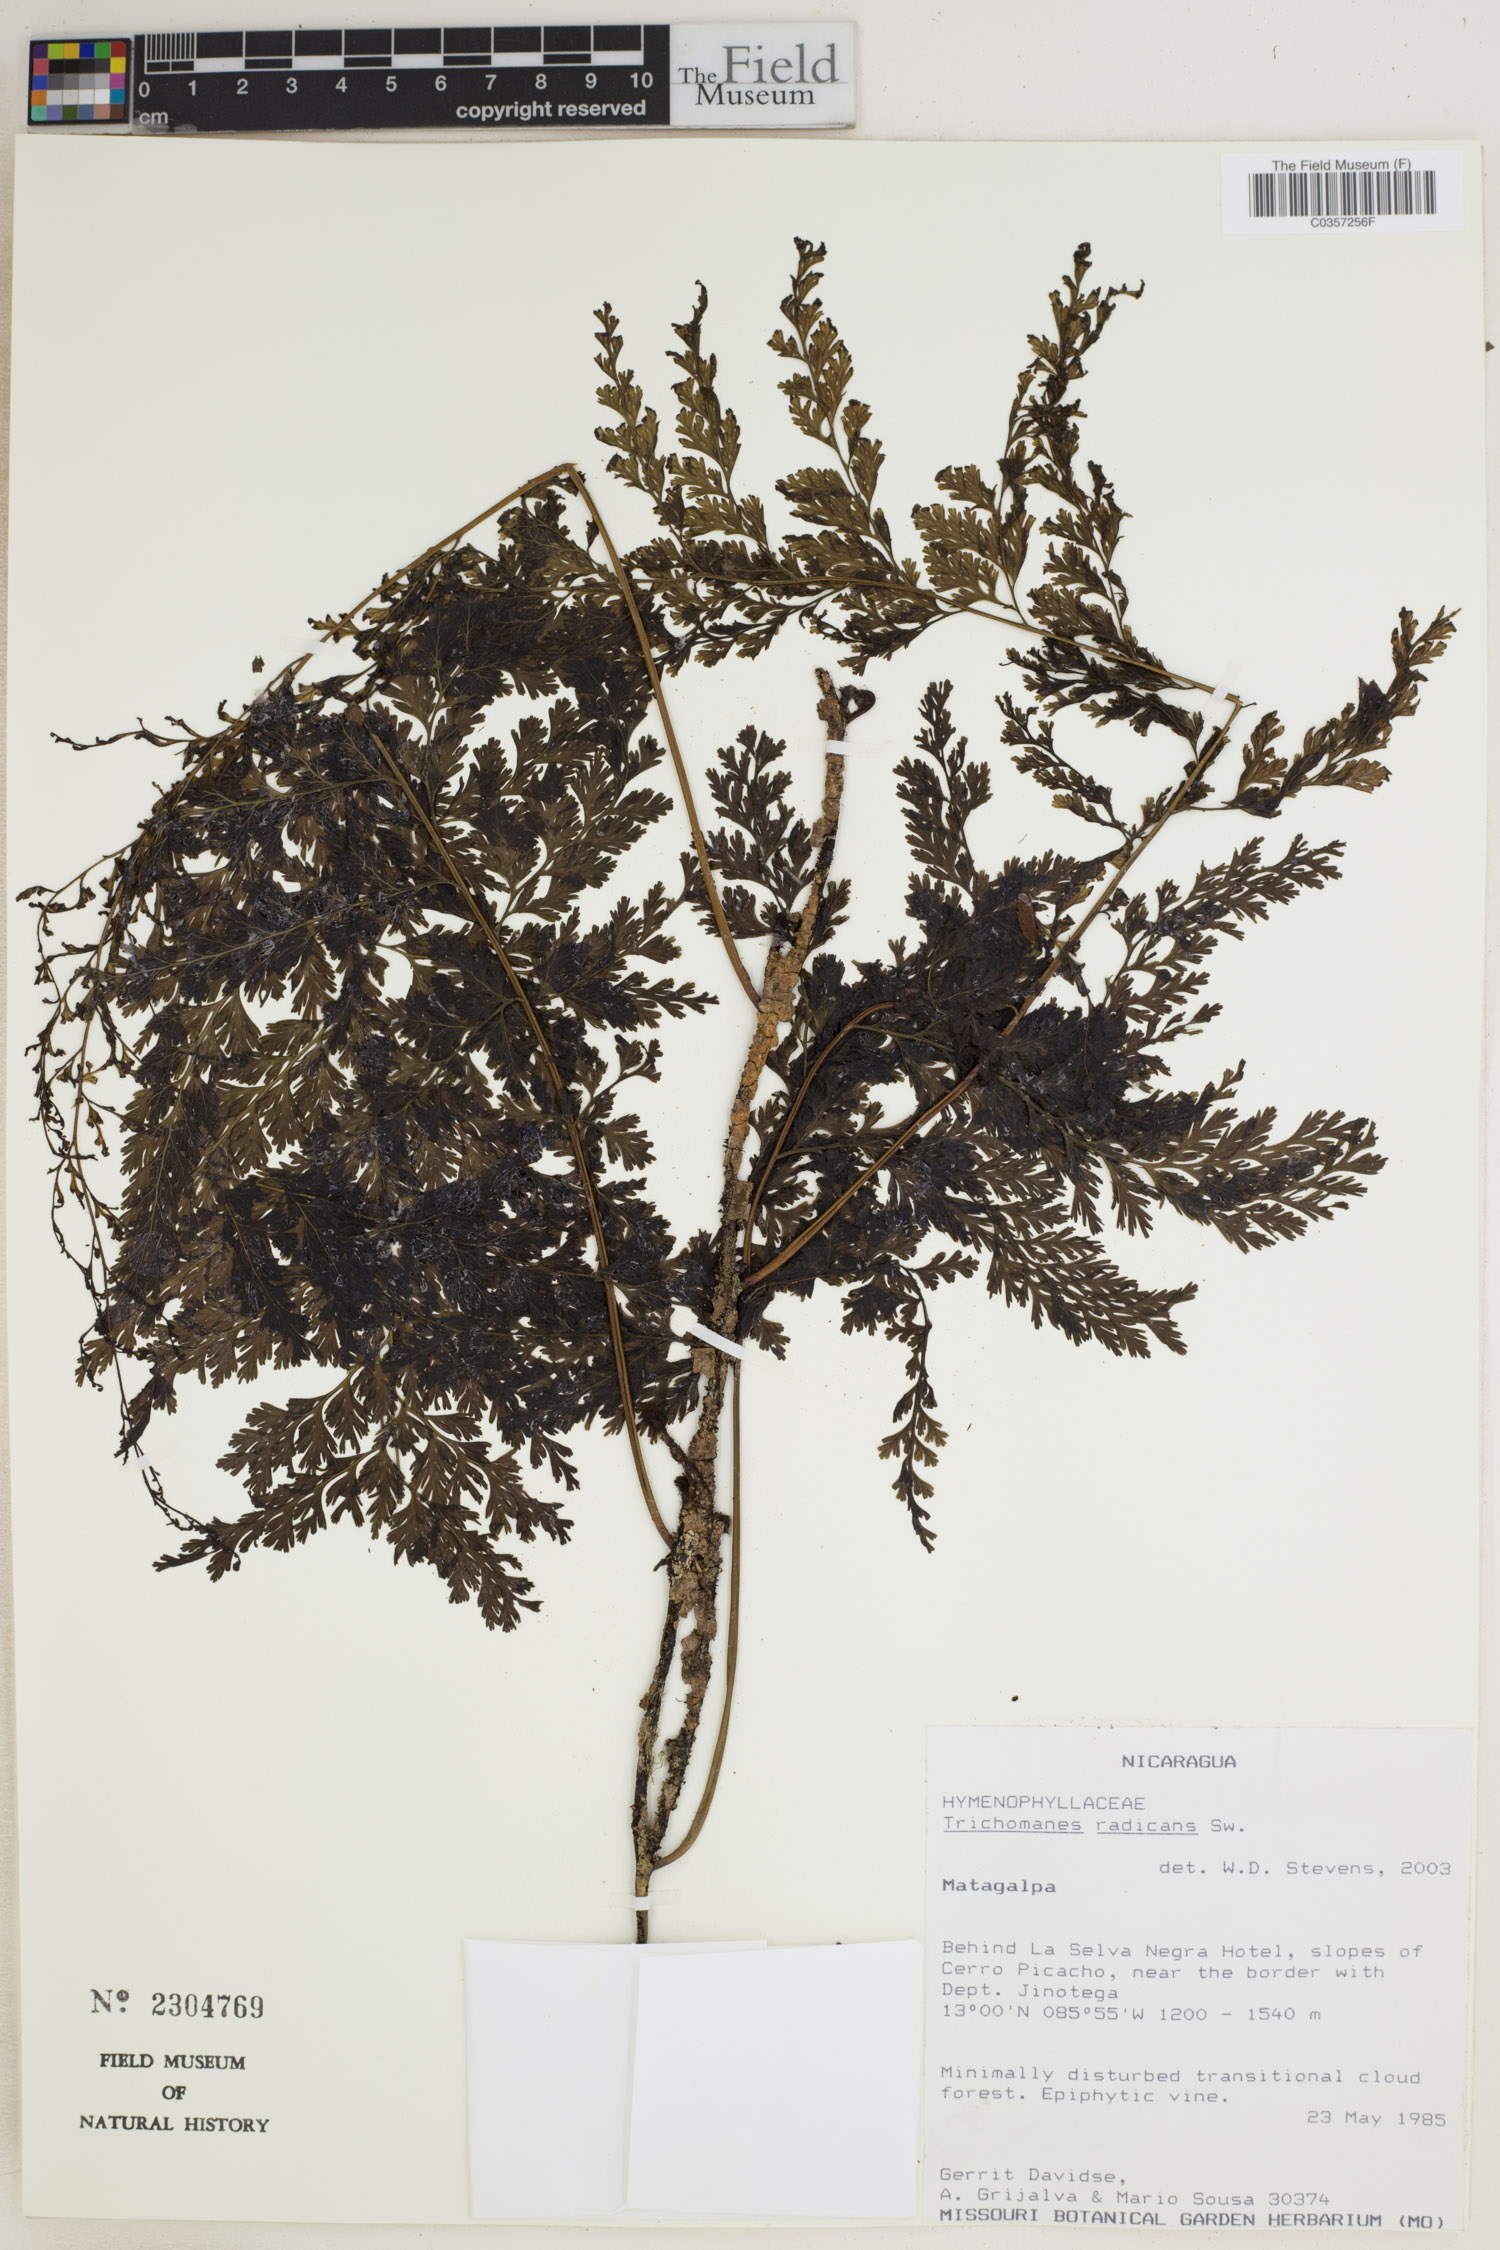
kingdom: Plantae
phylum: Tracheophyta
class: Polypodiopsida
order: Hymenophyllales
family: Hymenophyllaceae
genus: Vandenboschia
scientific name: Vandenboschia radicans
